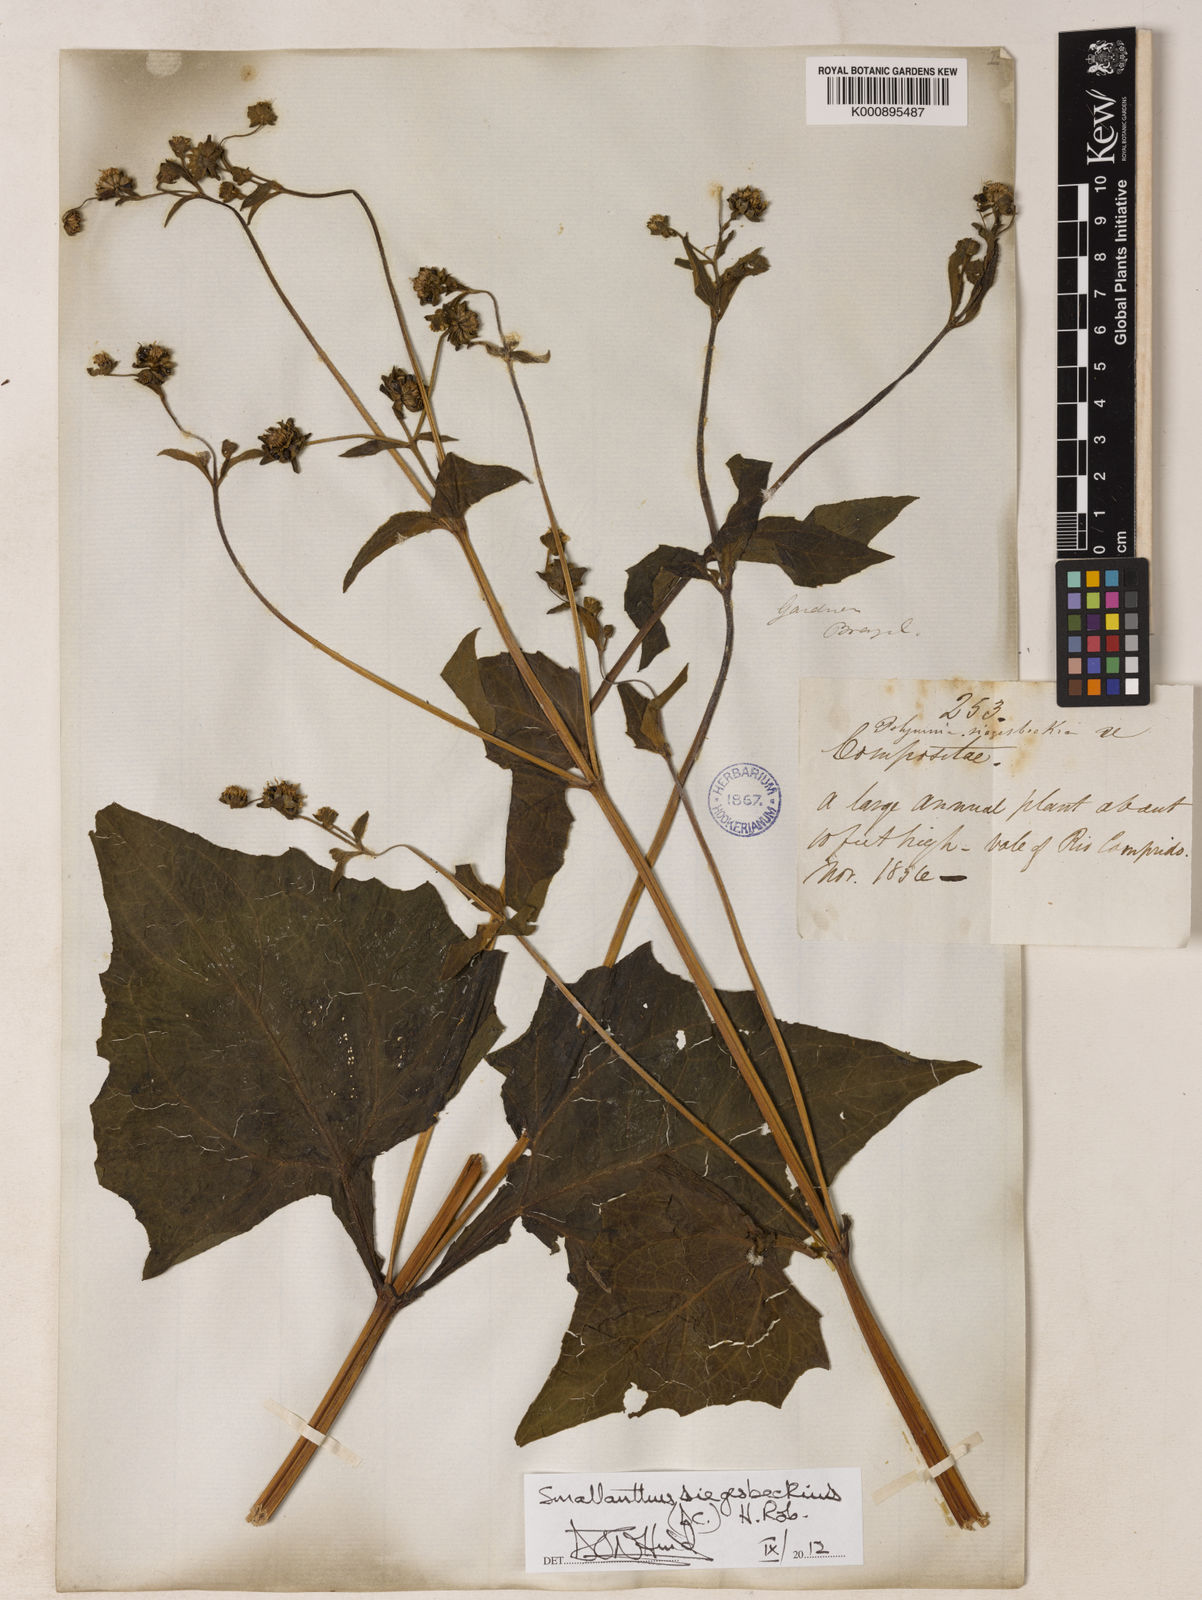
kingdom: Plantae
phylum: Tracheophyta
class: Magnoliopsida
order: Asterales
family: Asteraceae
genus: Smallanthus
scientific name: Smallanthus siegesbeckius
